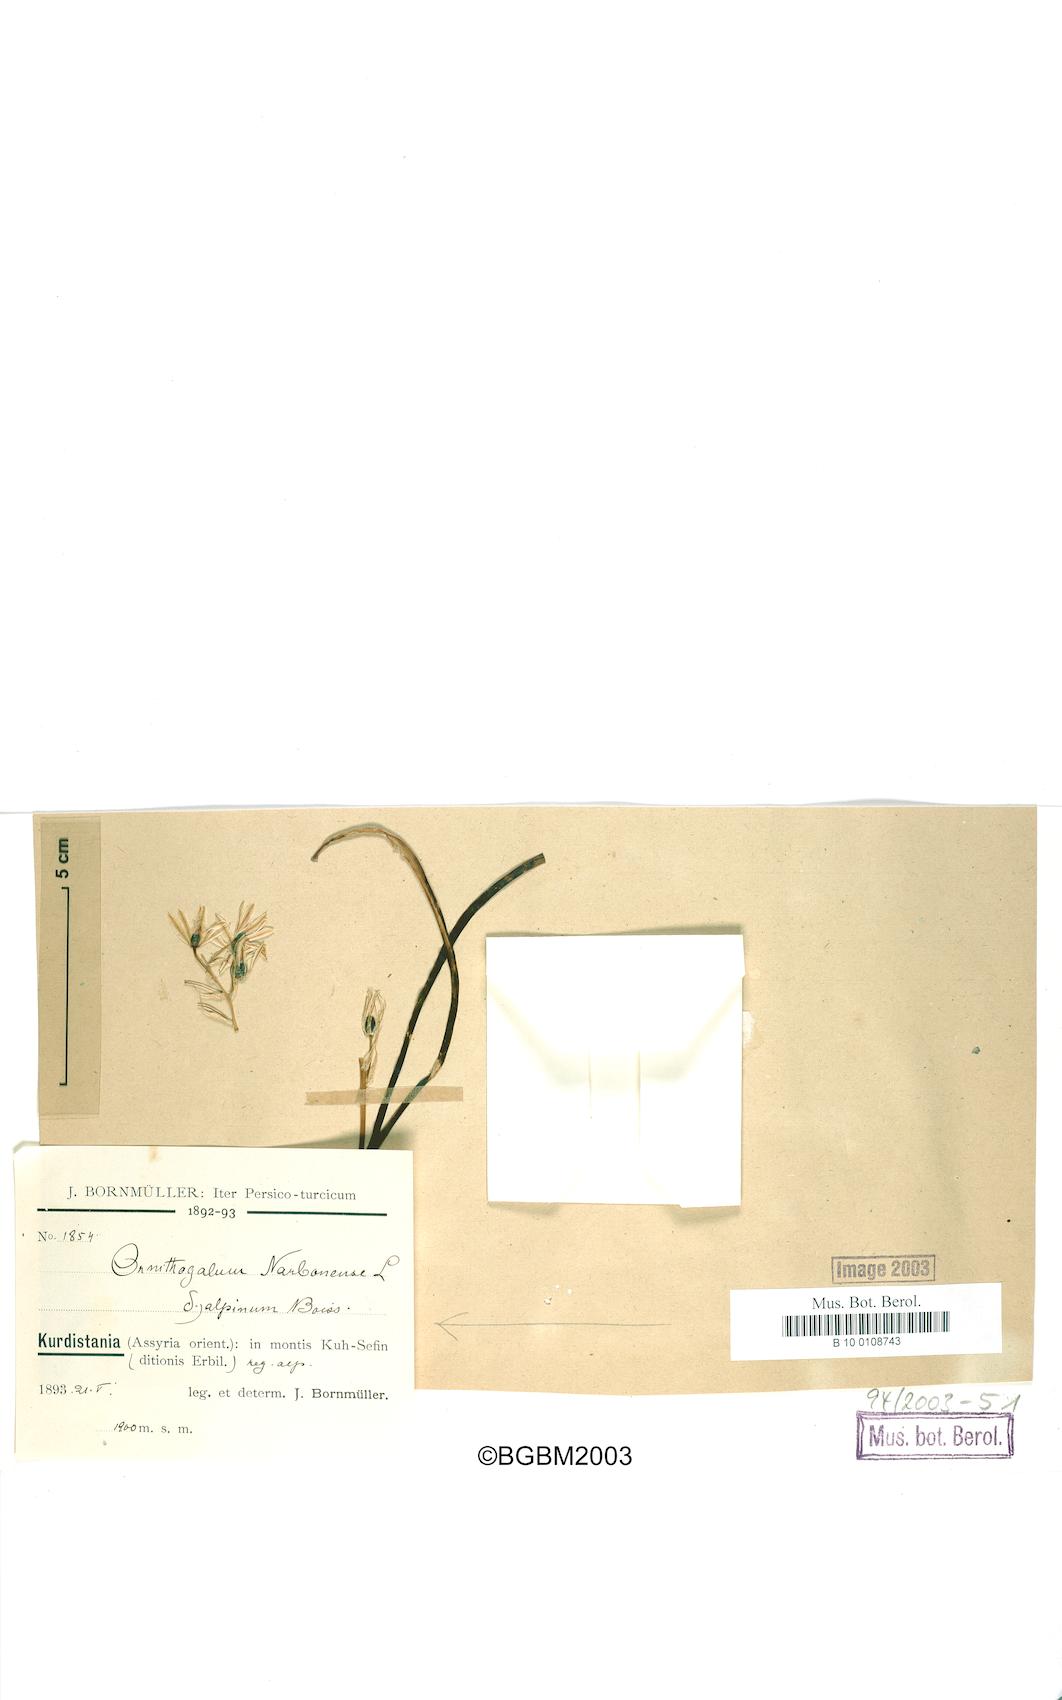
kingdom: Plantae
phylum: Tracheophyta
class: Liliopsida
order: Asparagales
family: Asparagaceae
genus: Ornithogalum
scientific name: Ornithogalum narbonense
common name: Bath-asparagus
